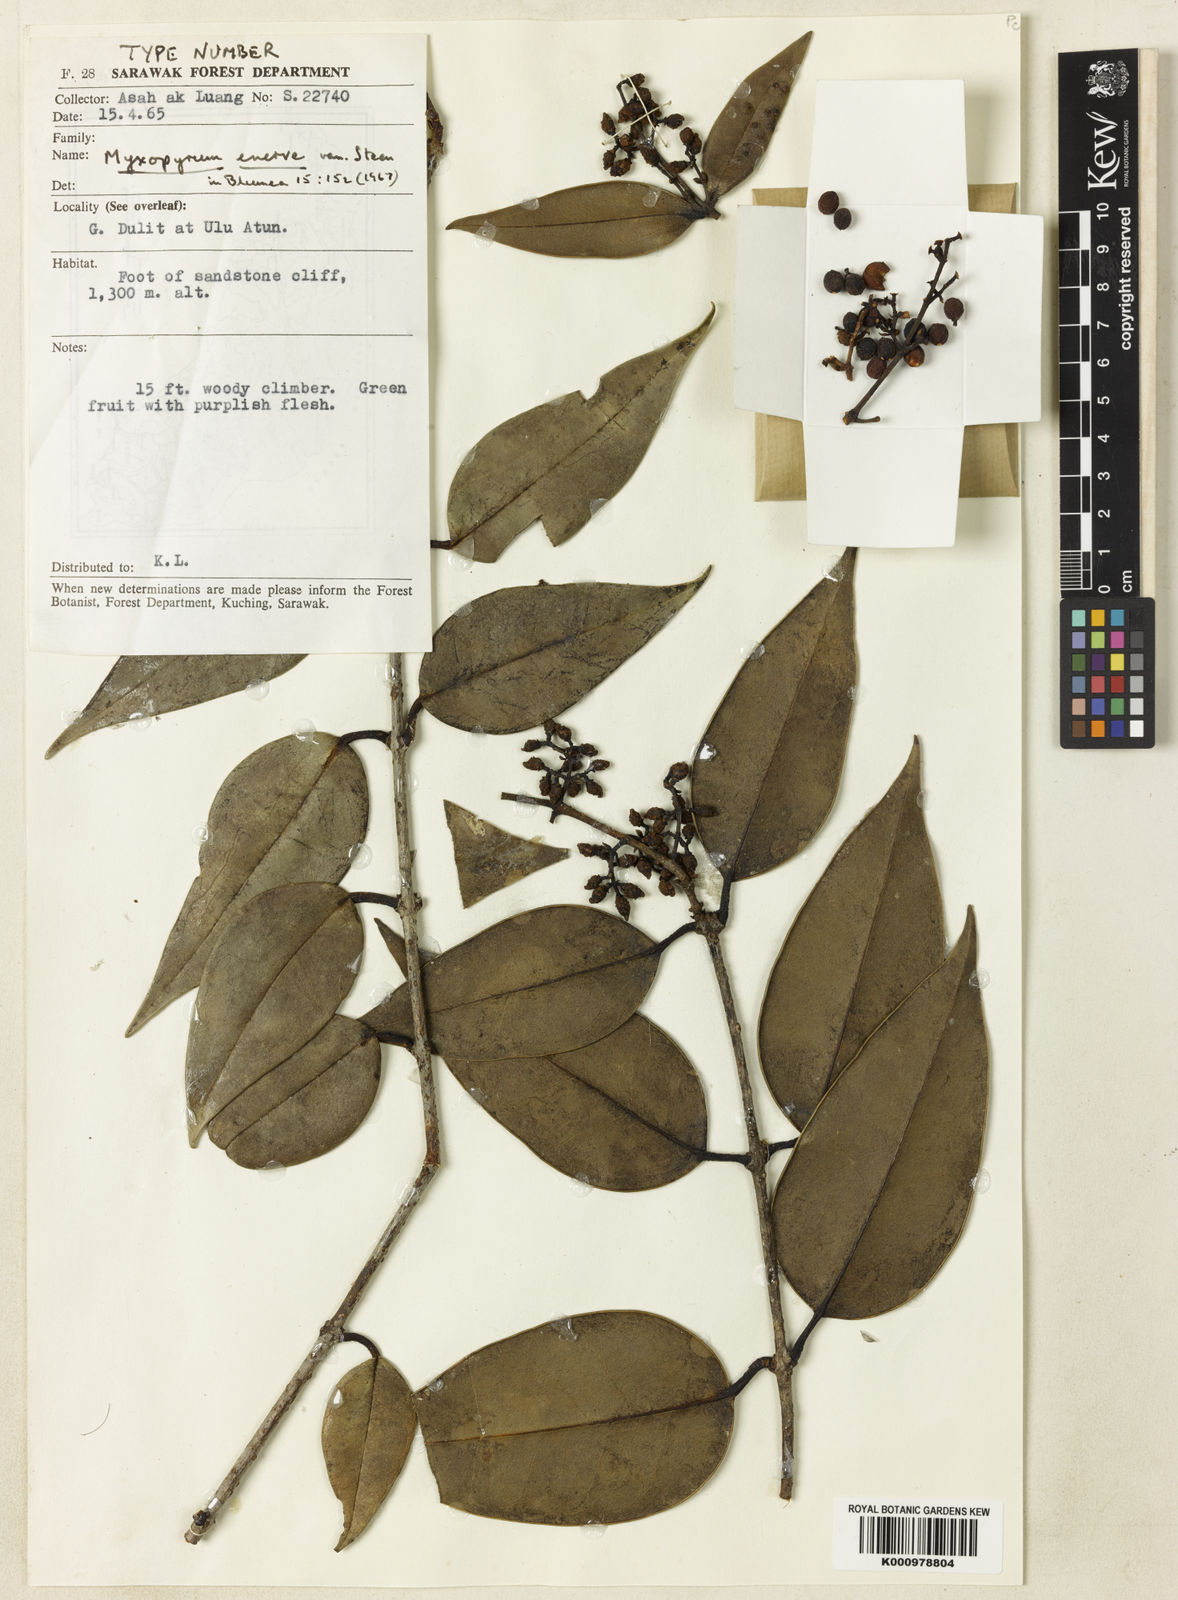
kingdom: Plantae
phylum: Tracheophyta
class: Magnoliopsida
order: Lamiales
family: Oleaceae
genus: Chionanthus
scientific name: Chionanthus enerve
